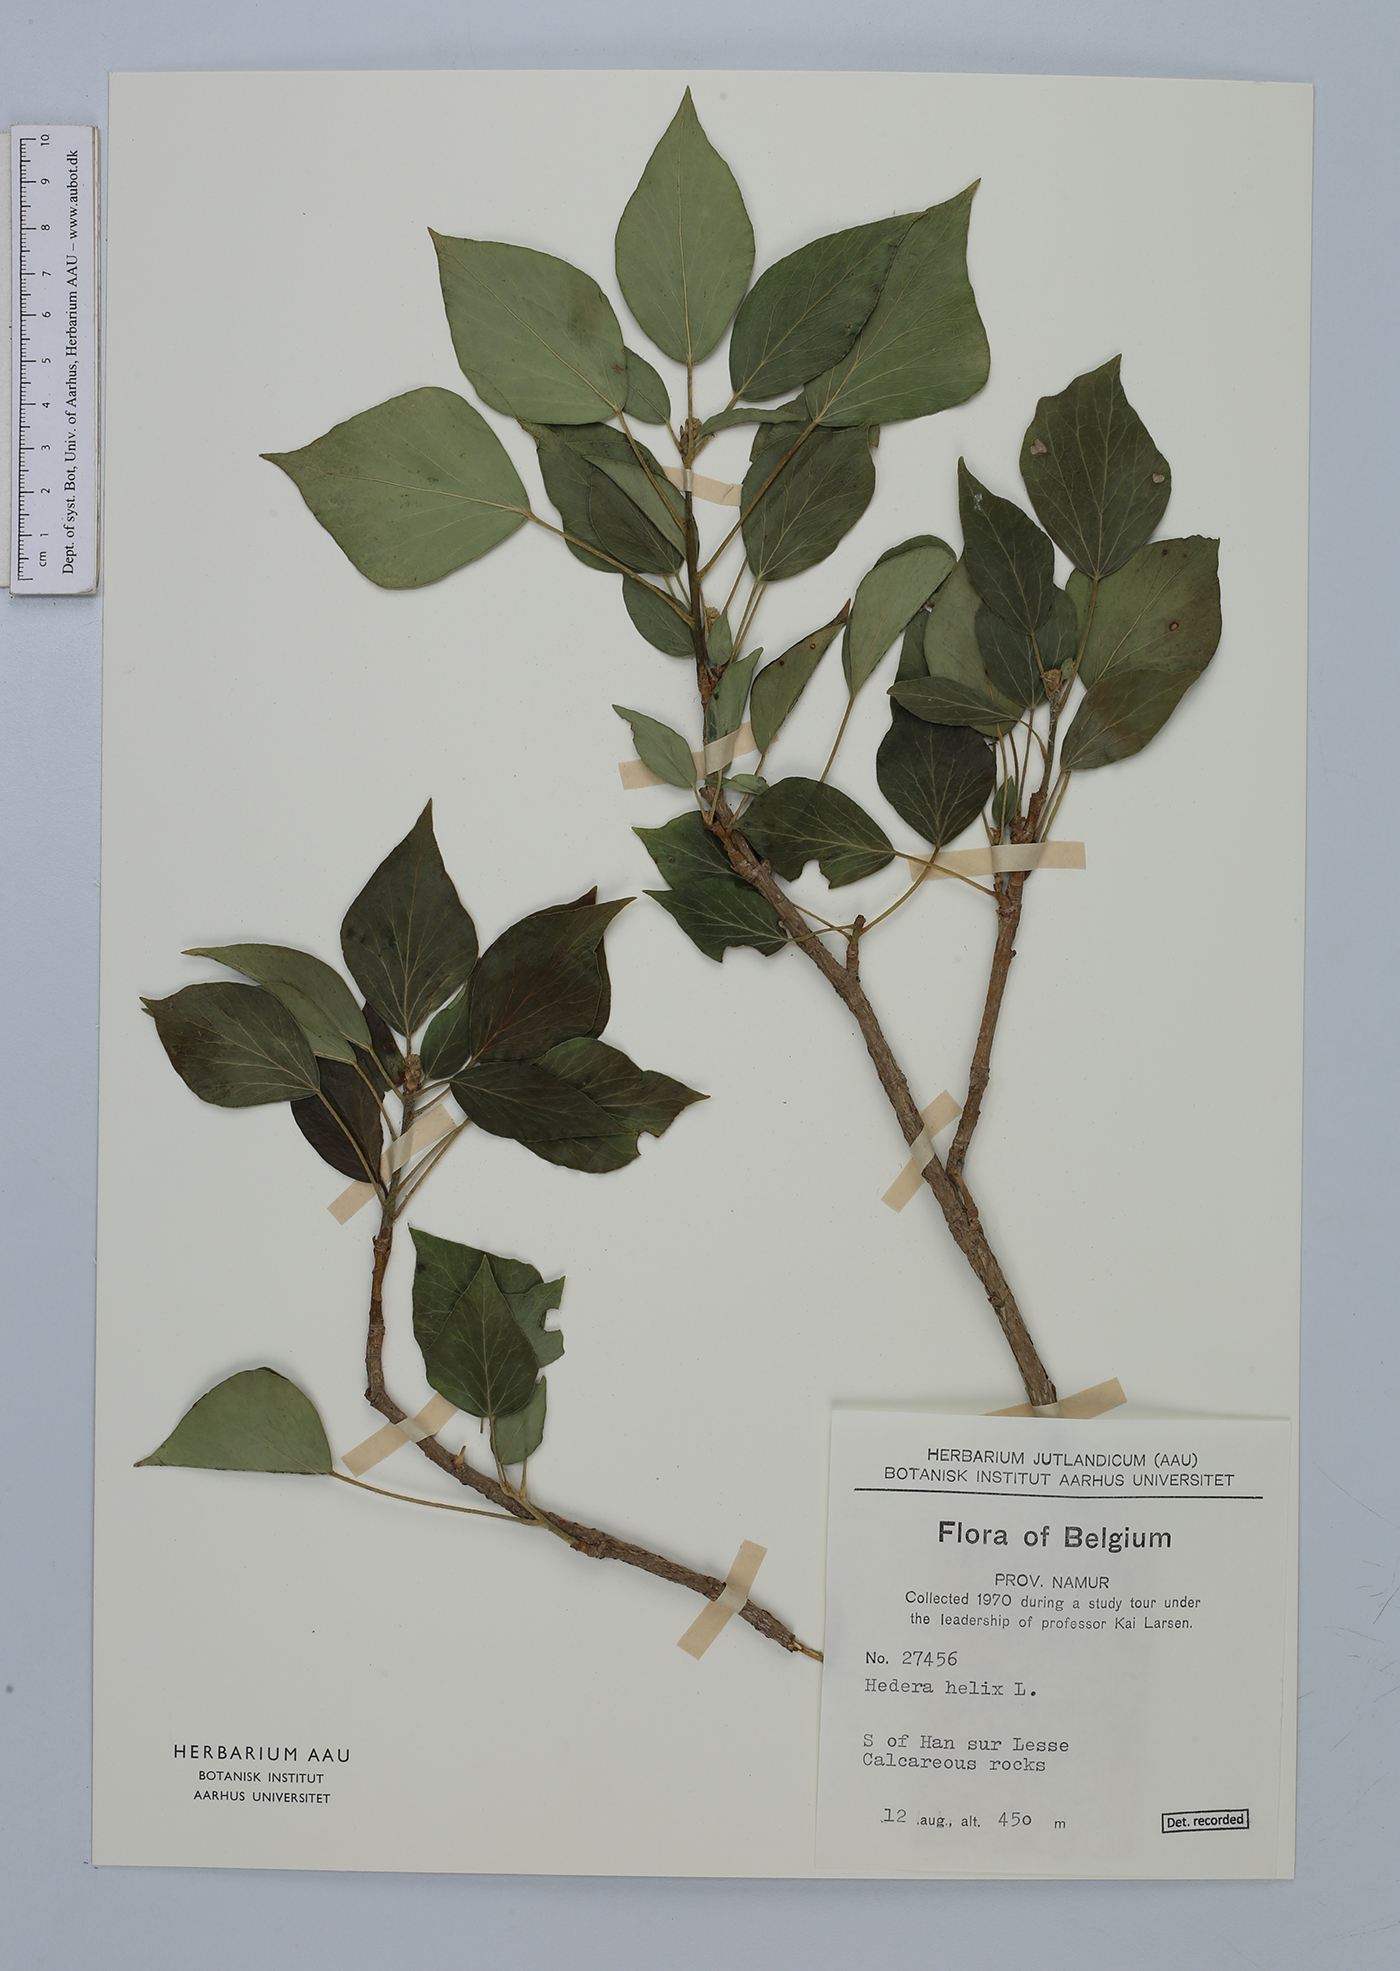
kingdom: Plantae
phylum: Tracheophyta
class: Magnoliopsida
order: Apiales
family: Araliaceae
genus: Hedera
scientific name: Hedera helix
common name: Ivy
